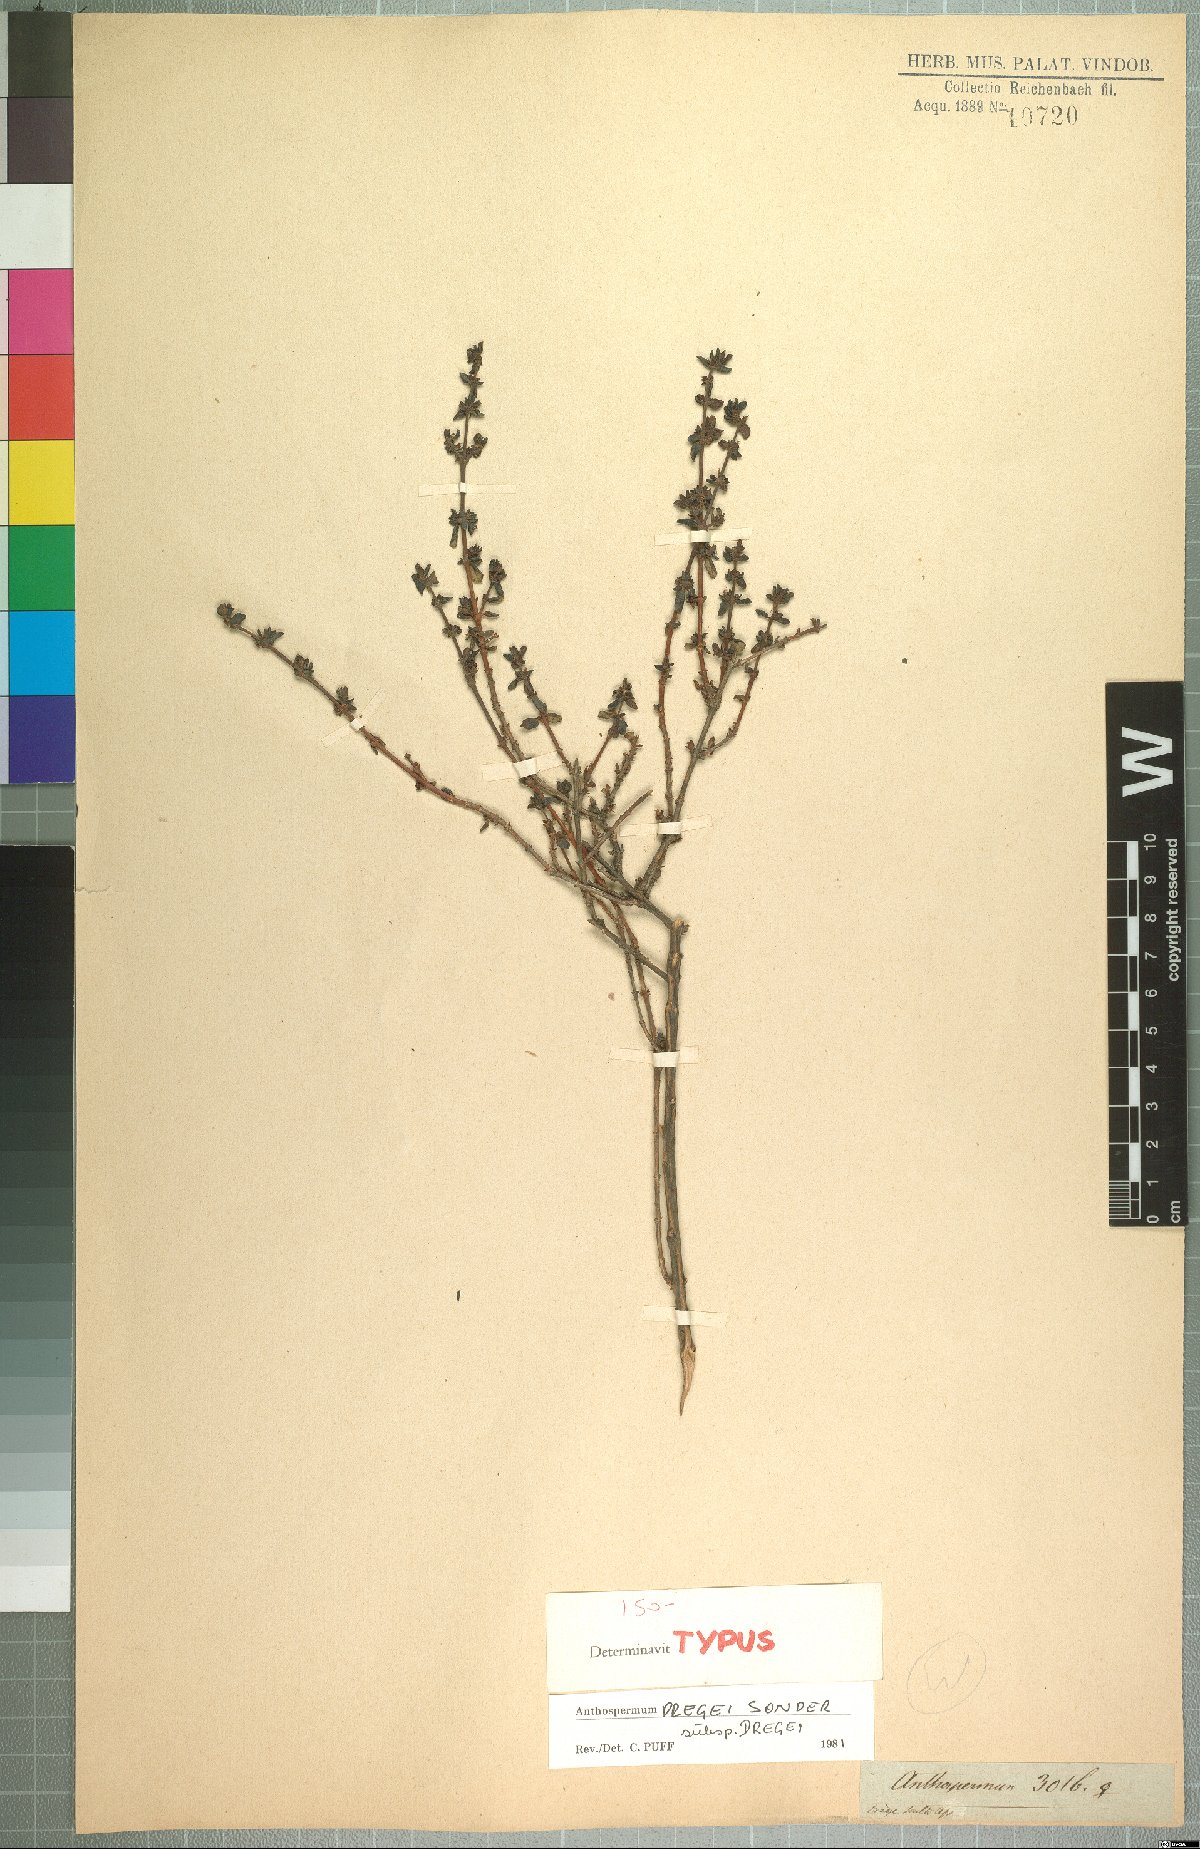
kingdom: Plantae
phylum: Tracheophyta
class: Magnoliopsida
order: Gentianales
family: Rubiaceae
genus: Anthospermum
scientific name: Anthospermum dregei
